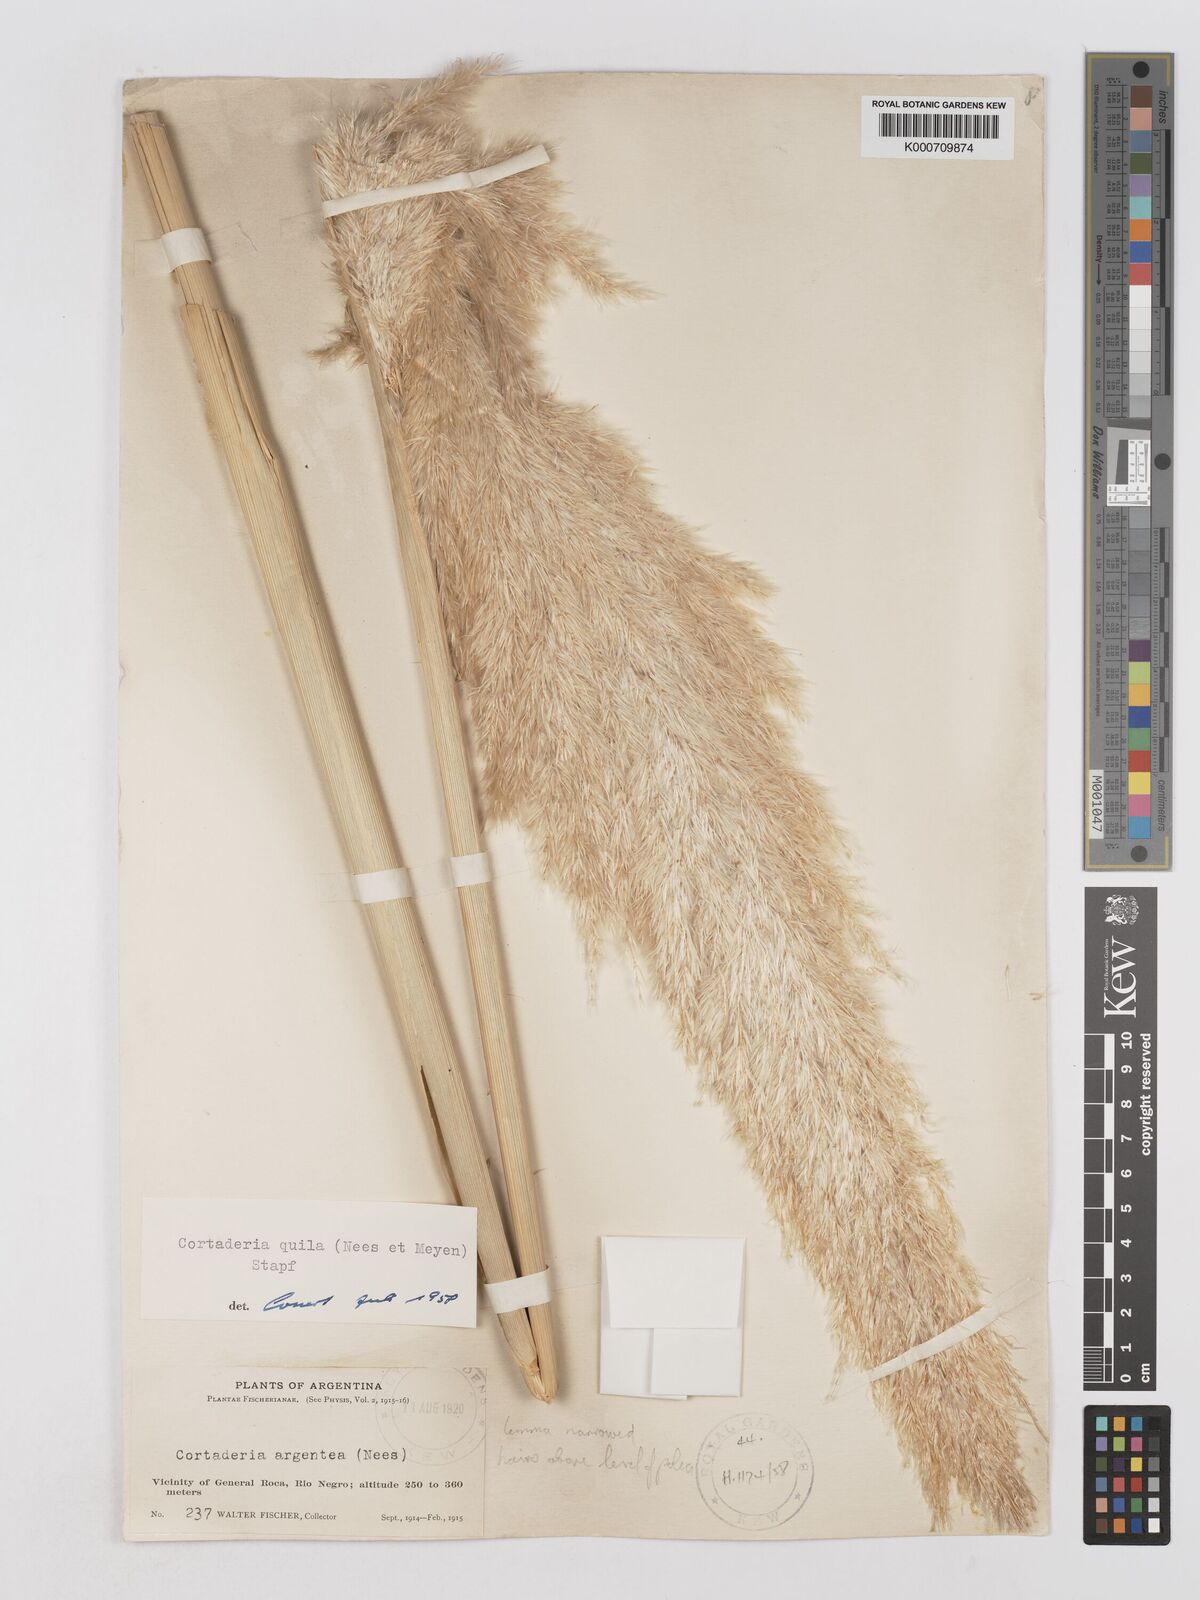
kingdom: Plantae
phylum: Tracheophyta
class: Liliopsida
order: Poales
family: Poaceae
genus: Cortaderia
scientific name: Cortaderia speciosa
